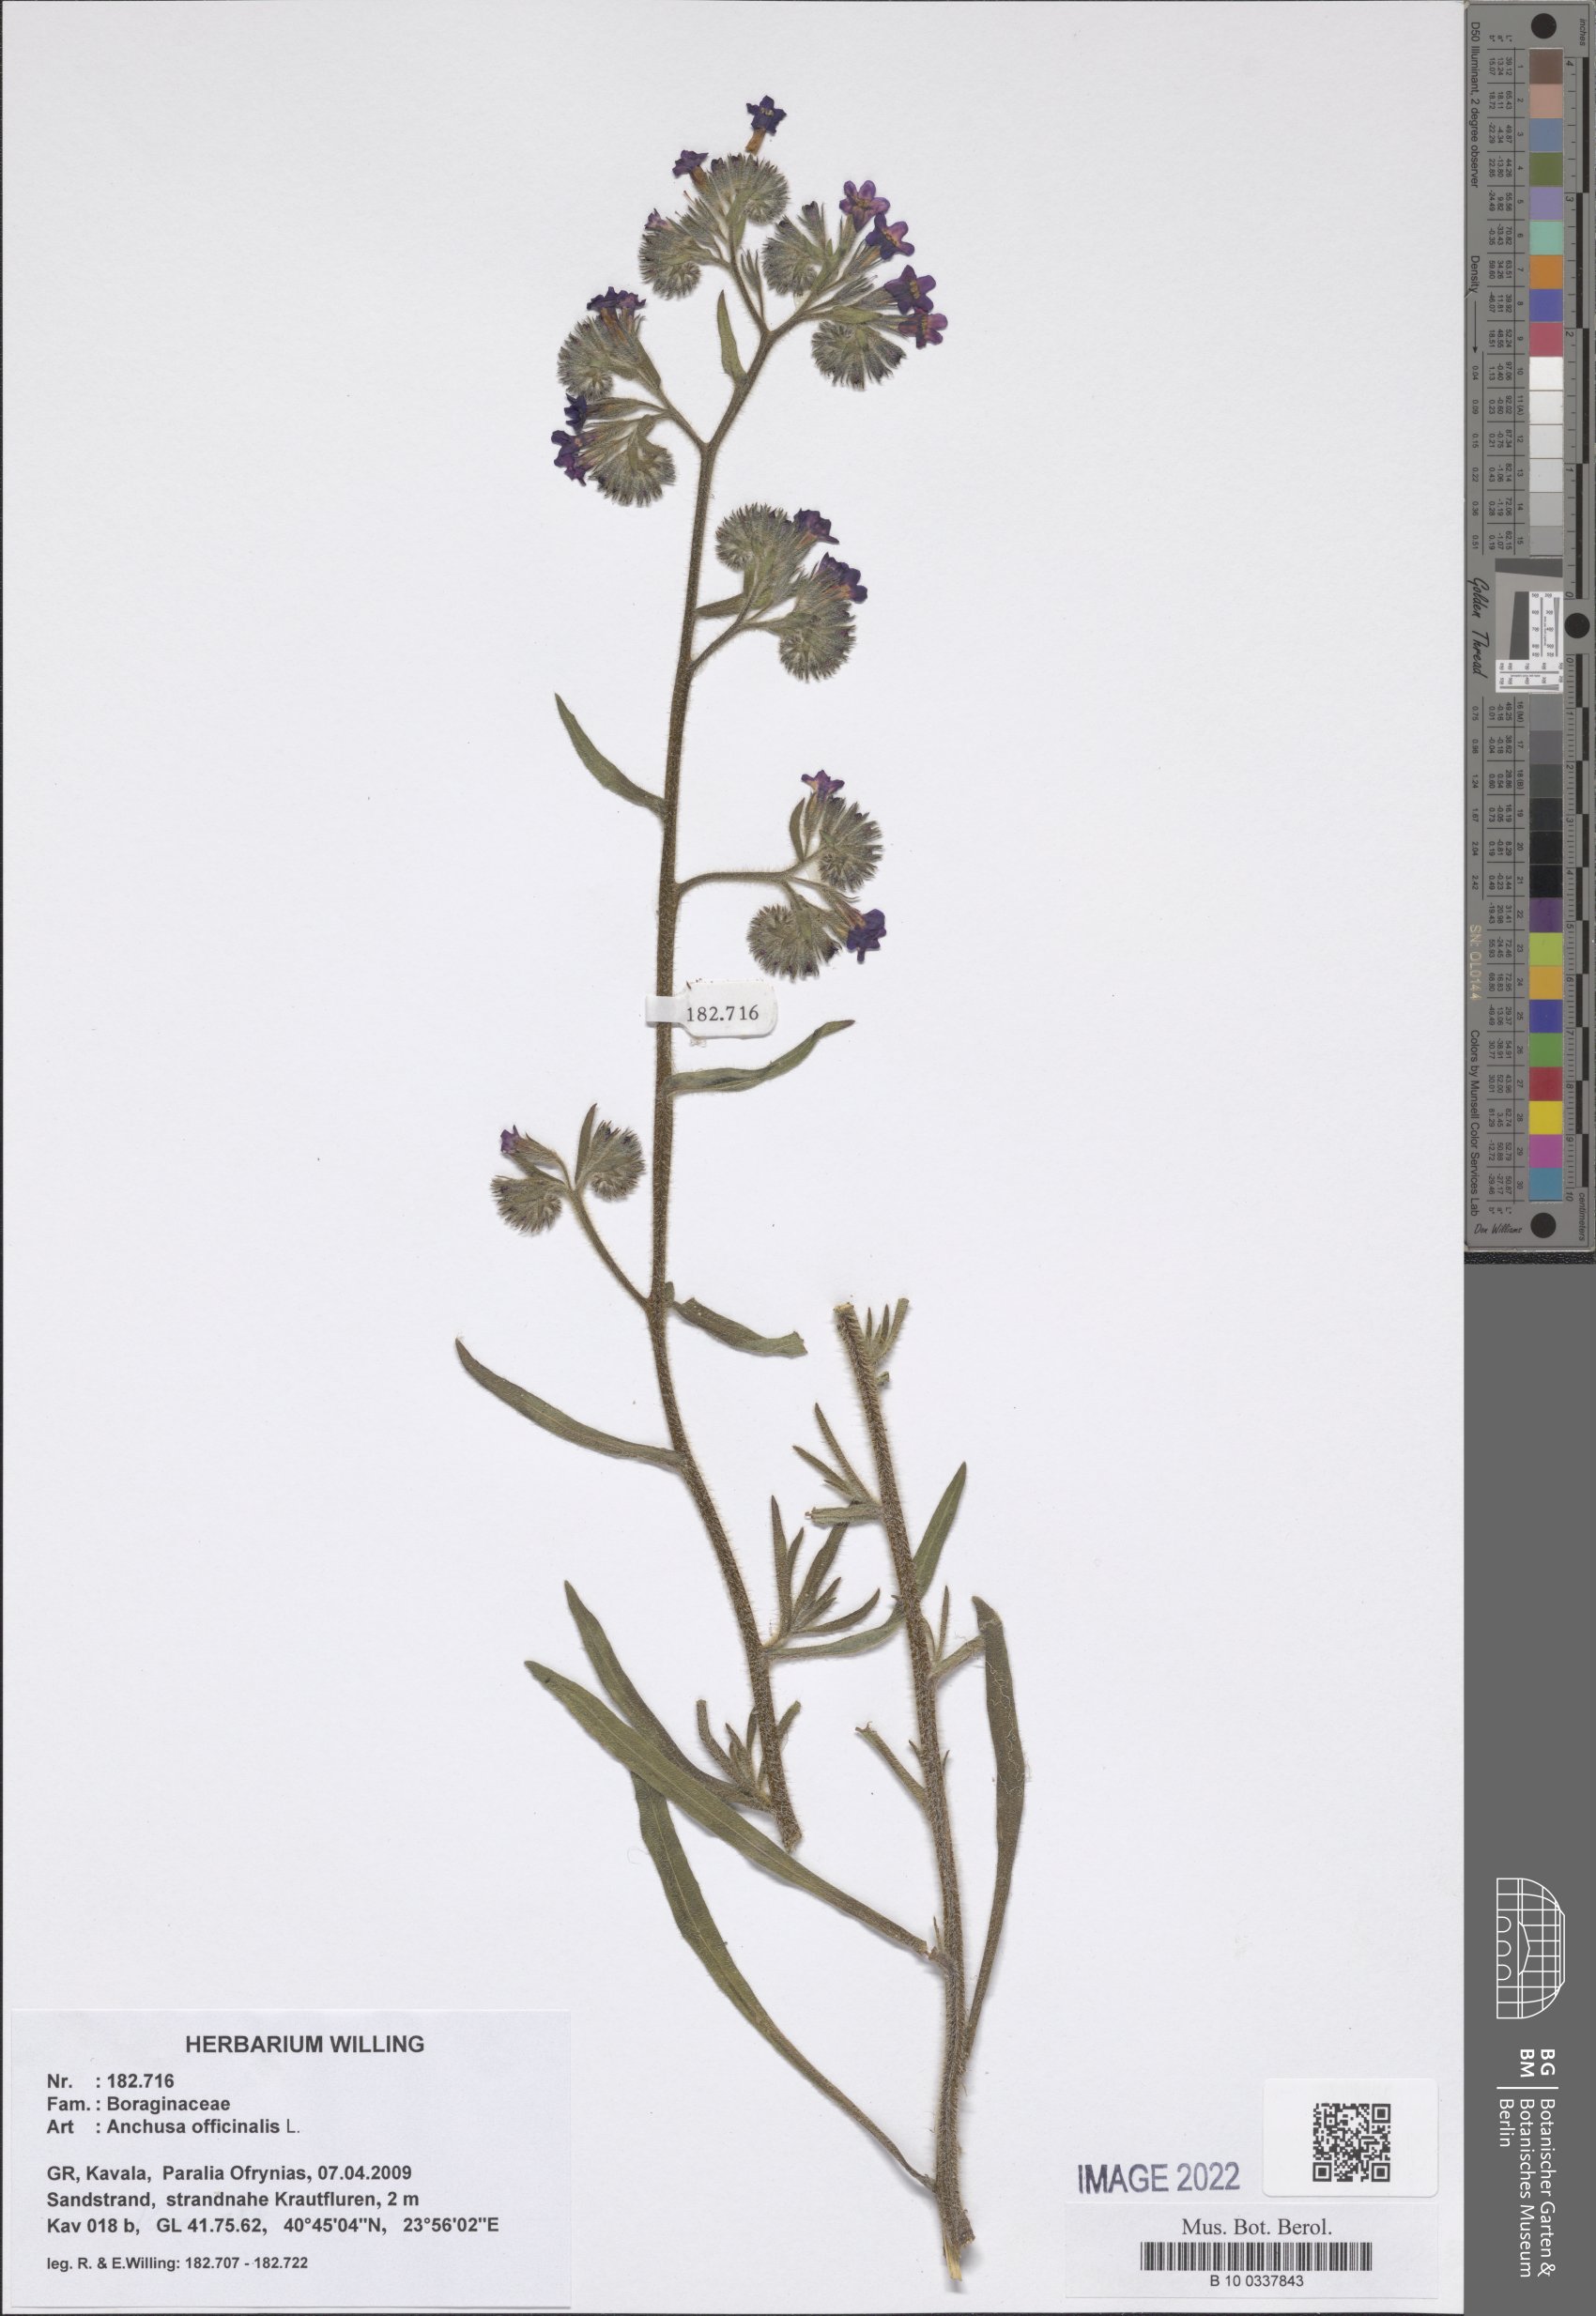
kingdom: Plantae
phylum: Tracheophyta
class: Magnoliopsida
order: Boraginales
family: Boraginaceae
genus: Anchusa
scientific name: Anchusa officinalis
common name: Alkanet
